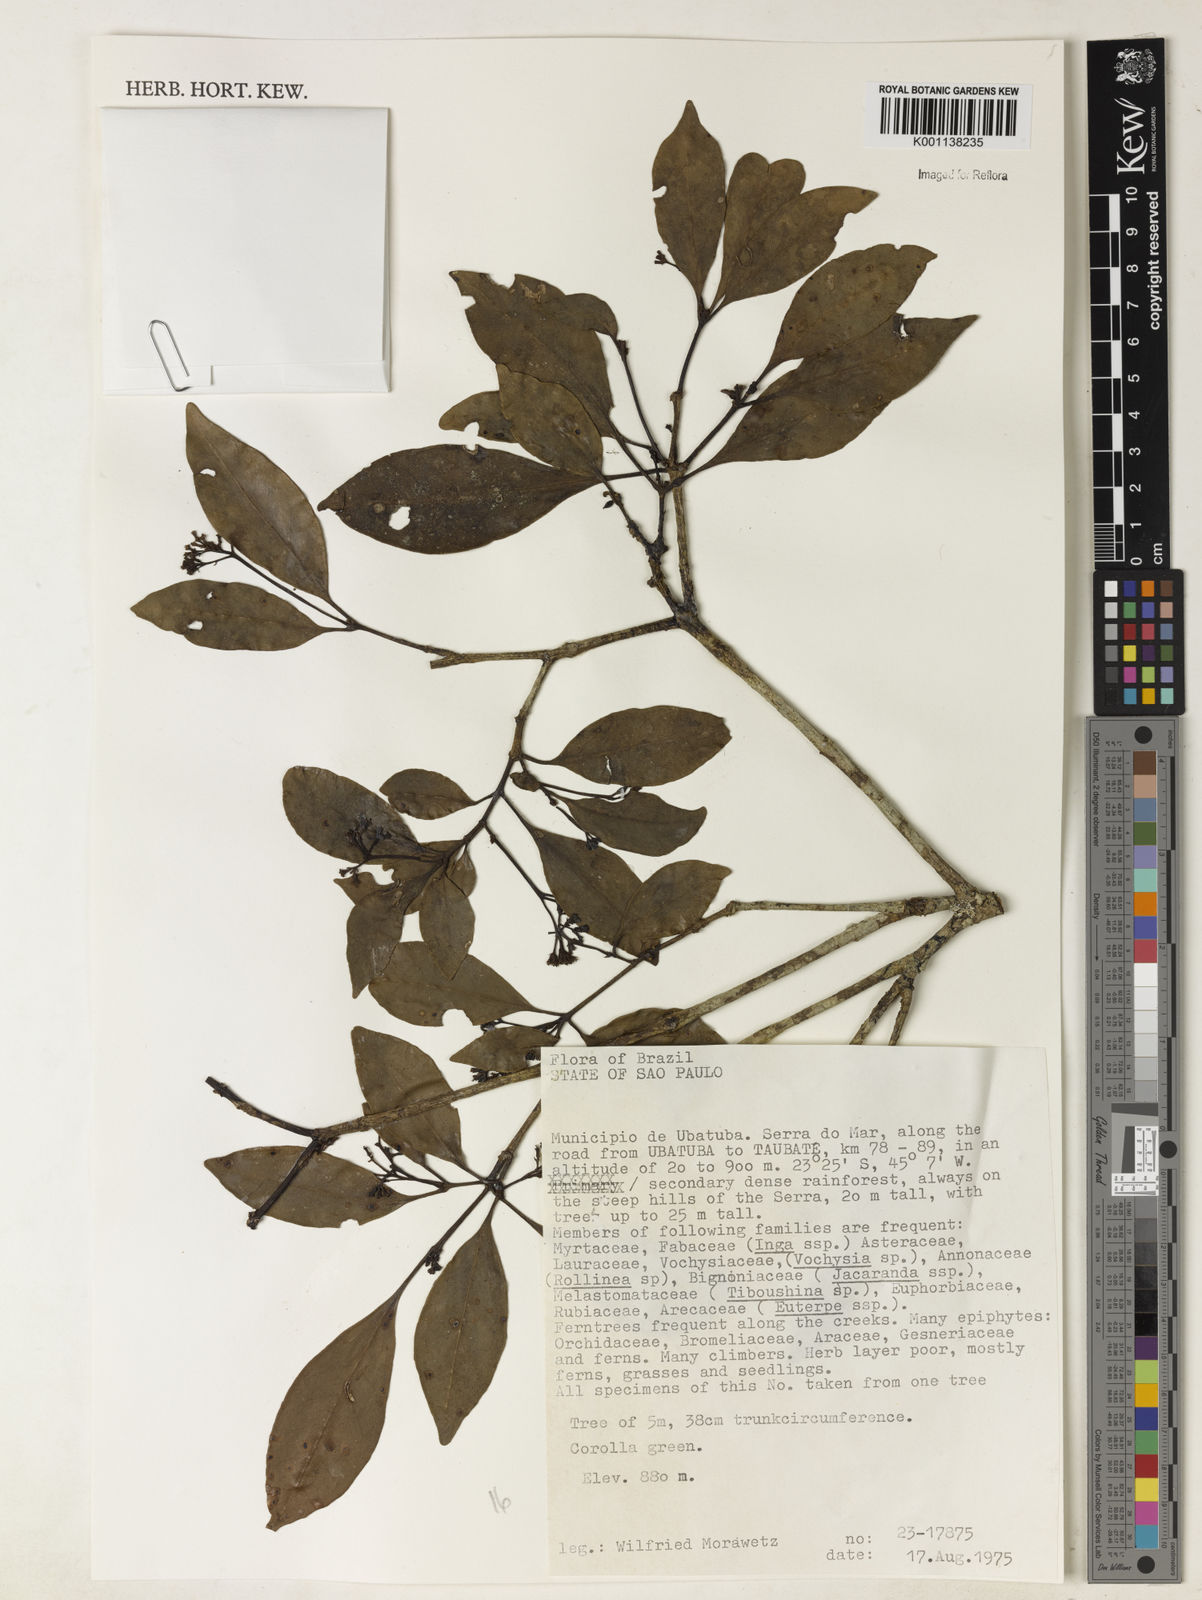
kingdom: Plantae
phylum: Tracheophyta
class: Magnoliopsida
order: Caryophyllales
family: Nyctaginaceae
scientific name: Nyctaginaceae
